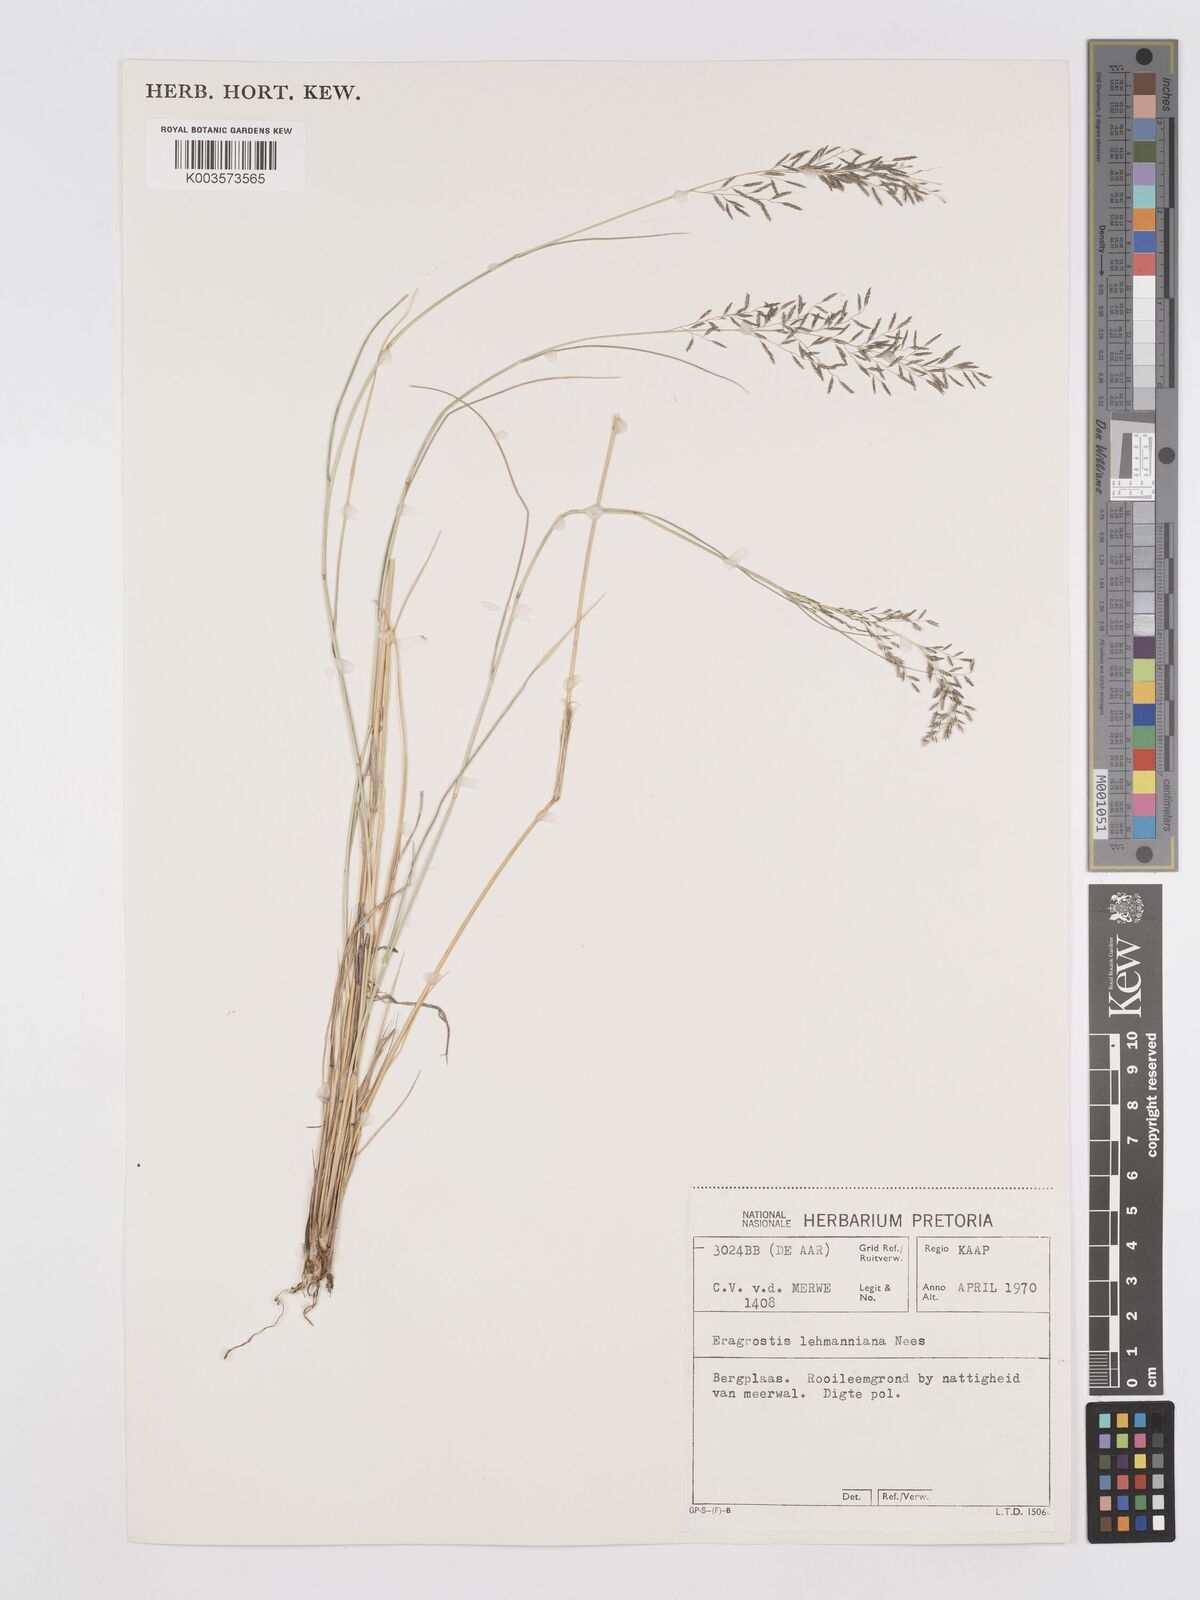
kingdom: Plantae
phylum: Tracheophyta
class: Liliopsida
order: Poales
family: Poaceae
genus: Eragrostis
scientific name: Eragrostis lehmanniana
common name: Lehmann lovegrass
